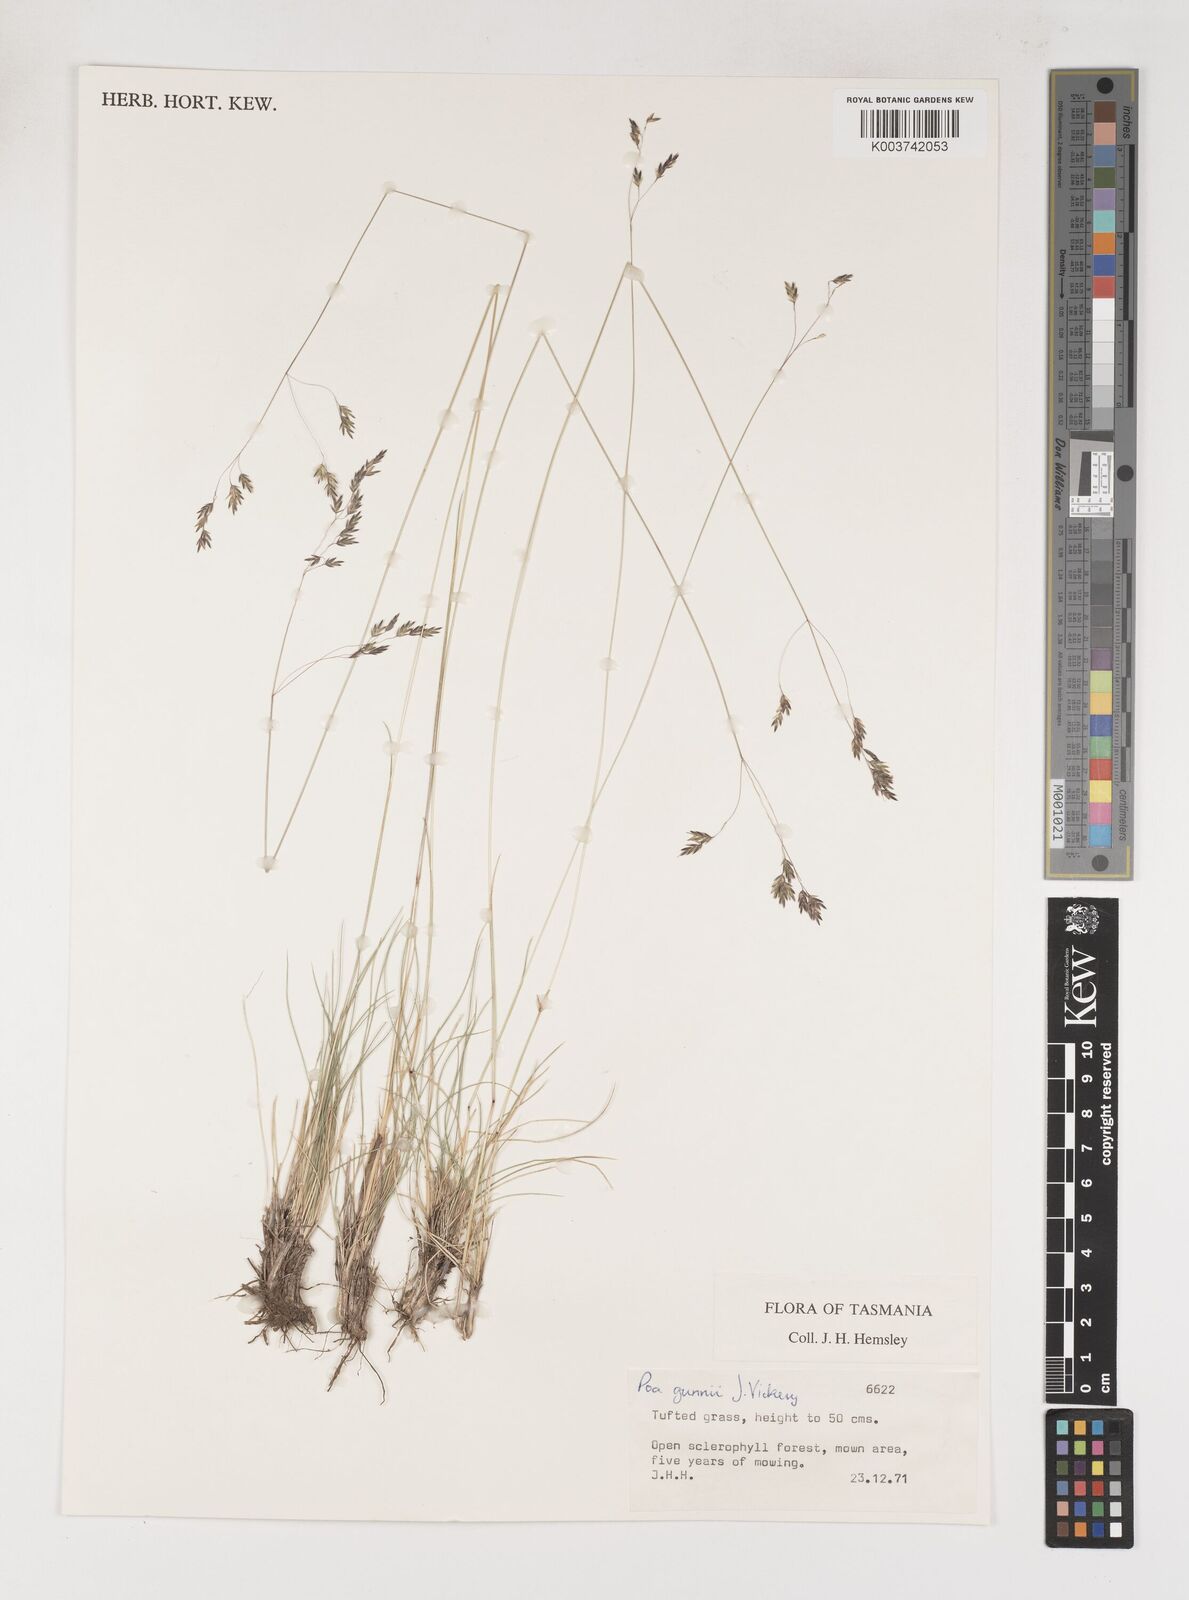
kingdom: Plantae
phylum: Tracheophyta
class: Liliopsida
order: Poales
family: Poaceae
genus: Poa
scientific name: Poa gunnii
